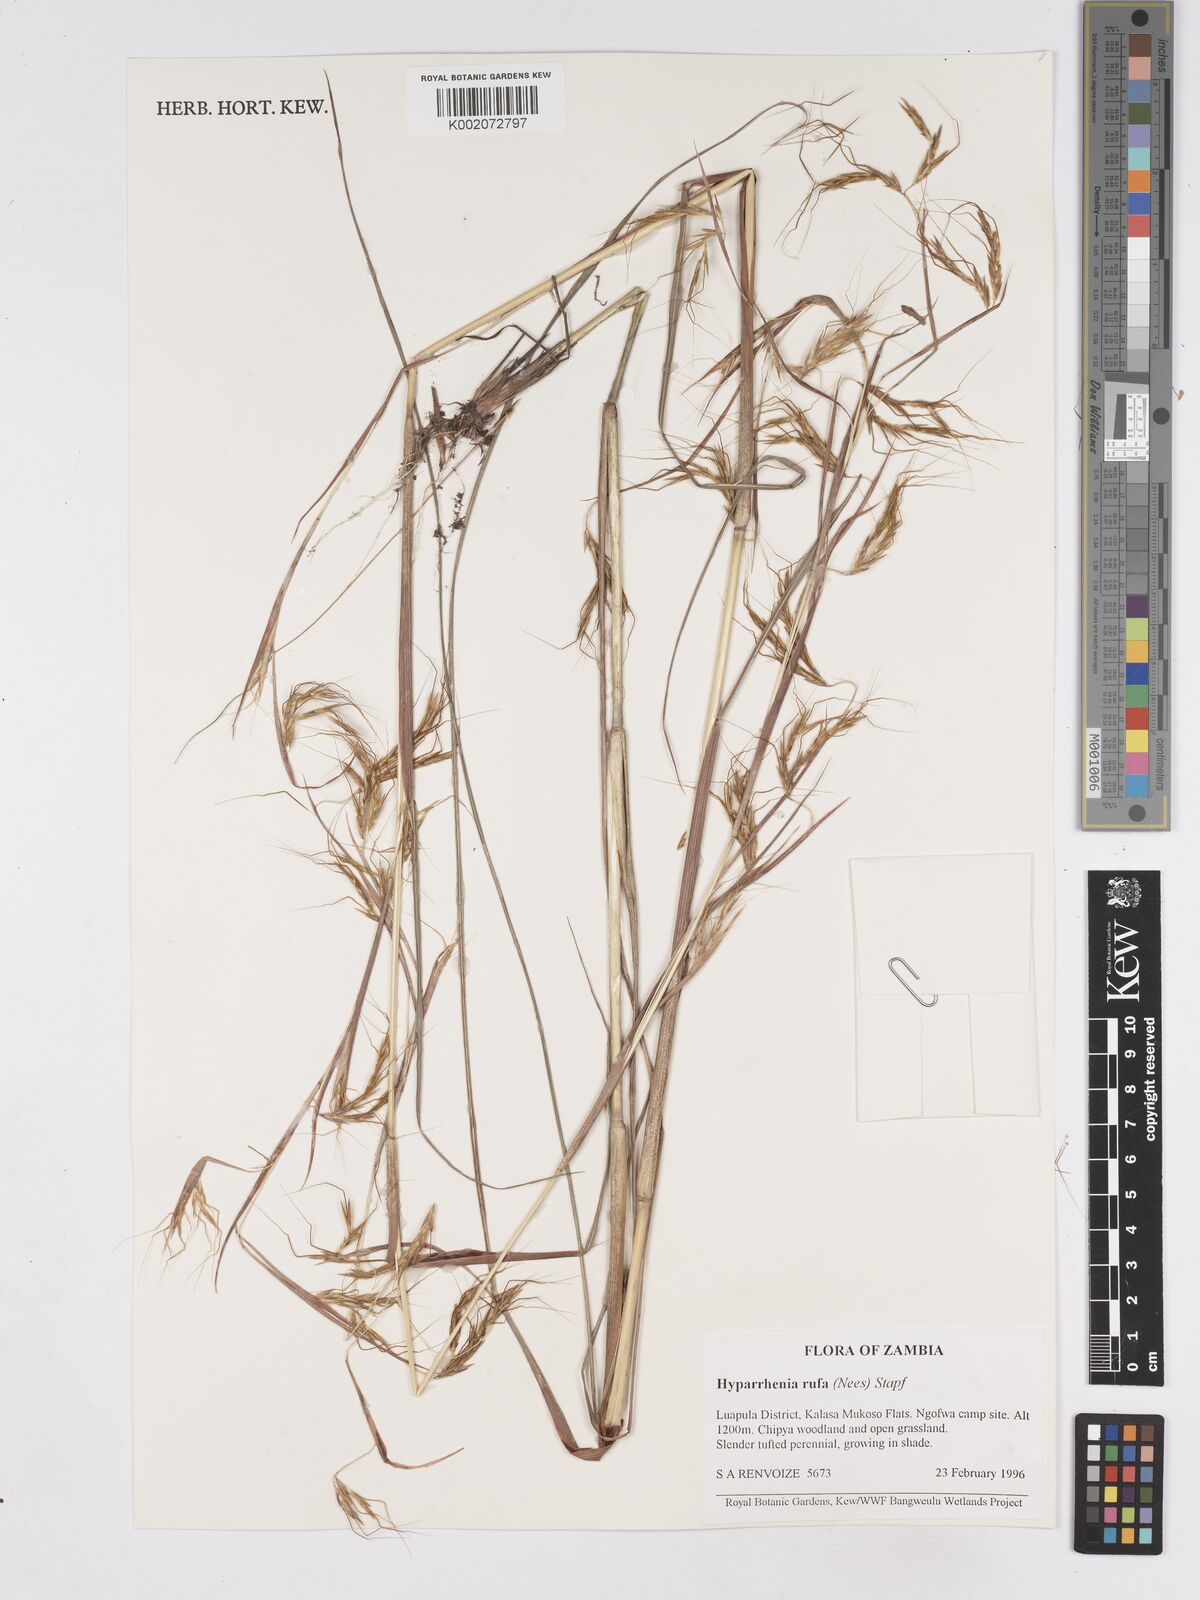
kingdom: Plantae
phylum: Tracheophyta
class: Liliopsida
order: Poales
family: Poaceae
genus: Hyparrhenia
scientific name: Hyparrhenia rufa
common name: Jaraguagrass
